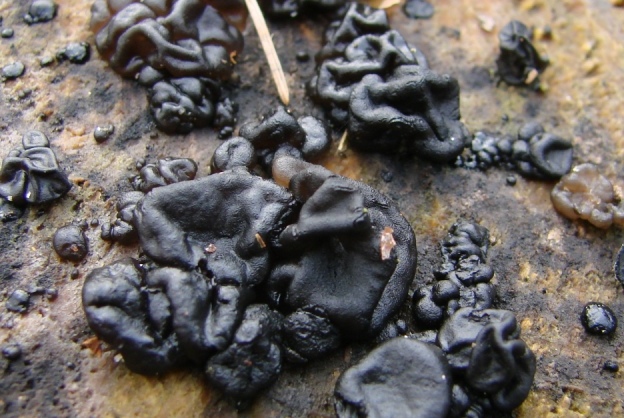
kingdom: Fungi
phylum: Basidiomycota
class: Agaricomycetes
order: Auriculariales
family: Auriculariaceae
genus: Exidia
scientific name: Exidia nigricans
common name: almindelig bævretop
